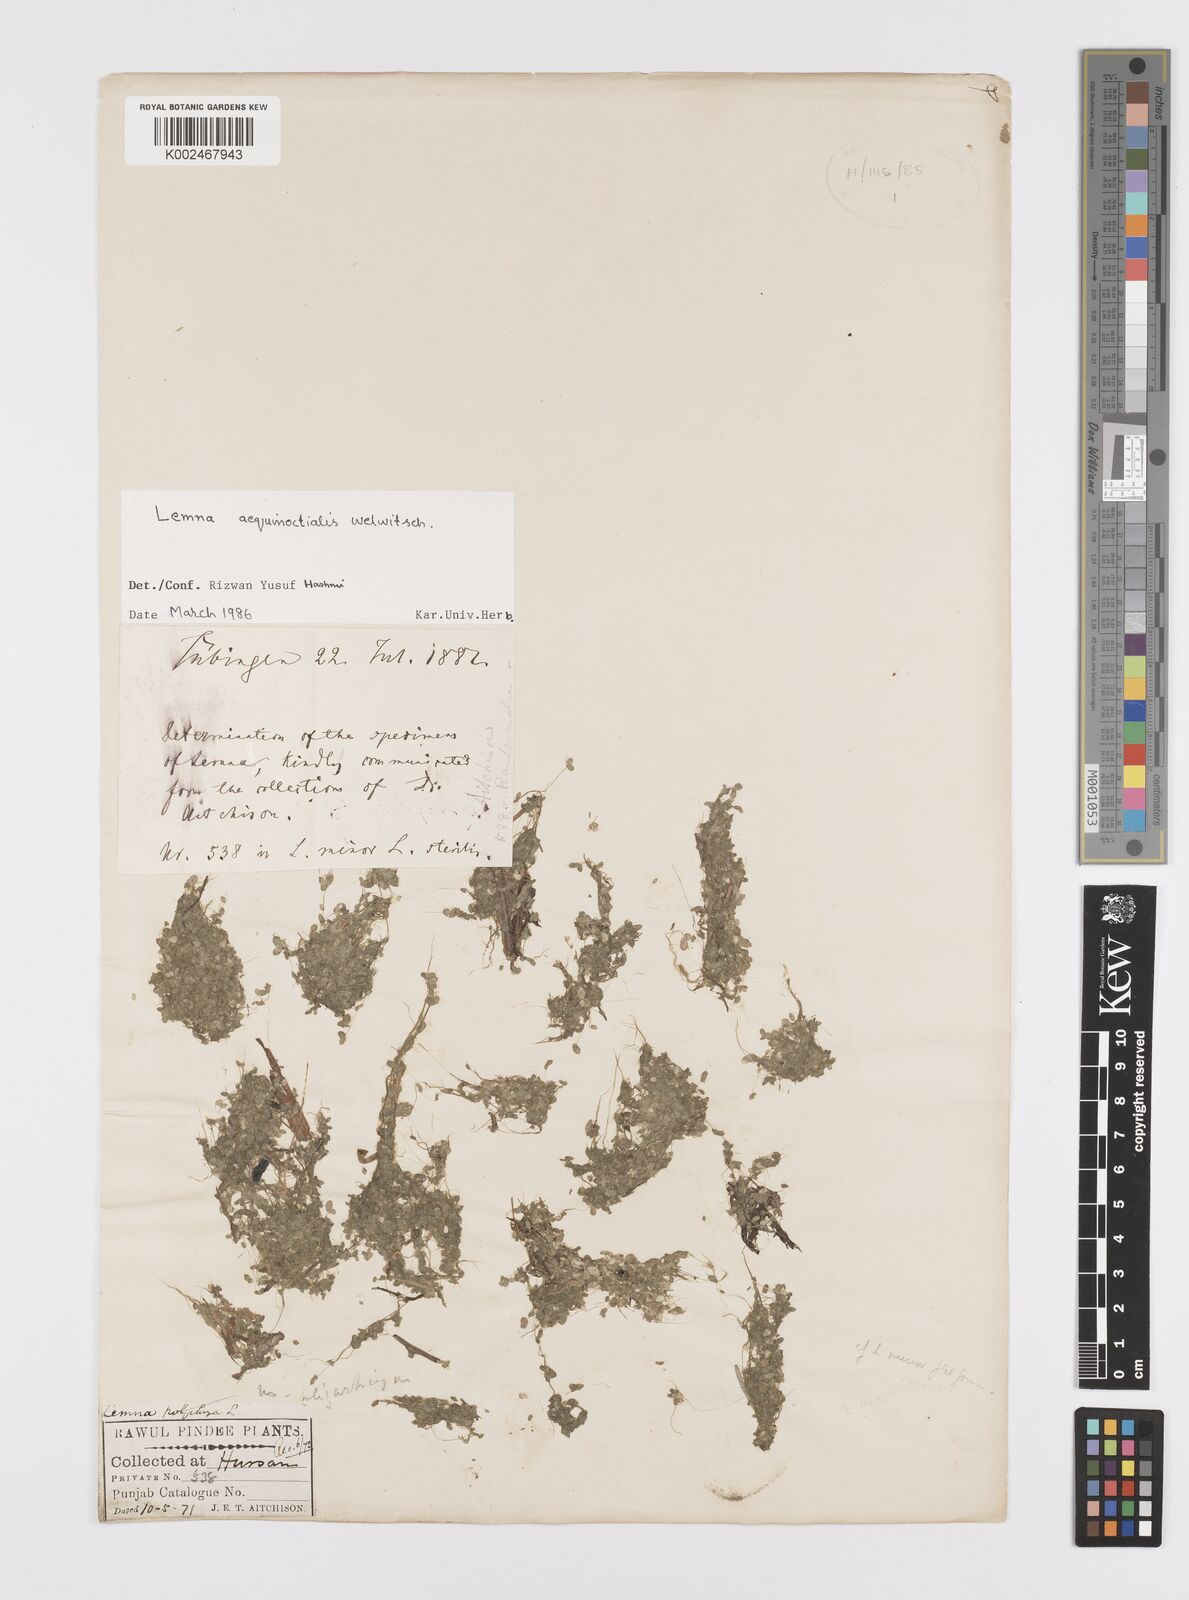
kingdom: Plantae
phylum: Tracheophyta
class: Liliopsida
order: Alismatales
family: Araceae
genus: Lemna
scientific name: Lemna aequinoctialis
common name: Duckweed
